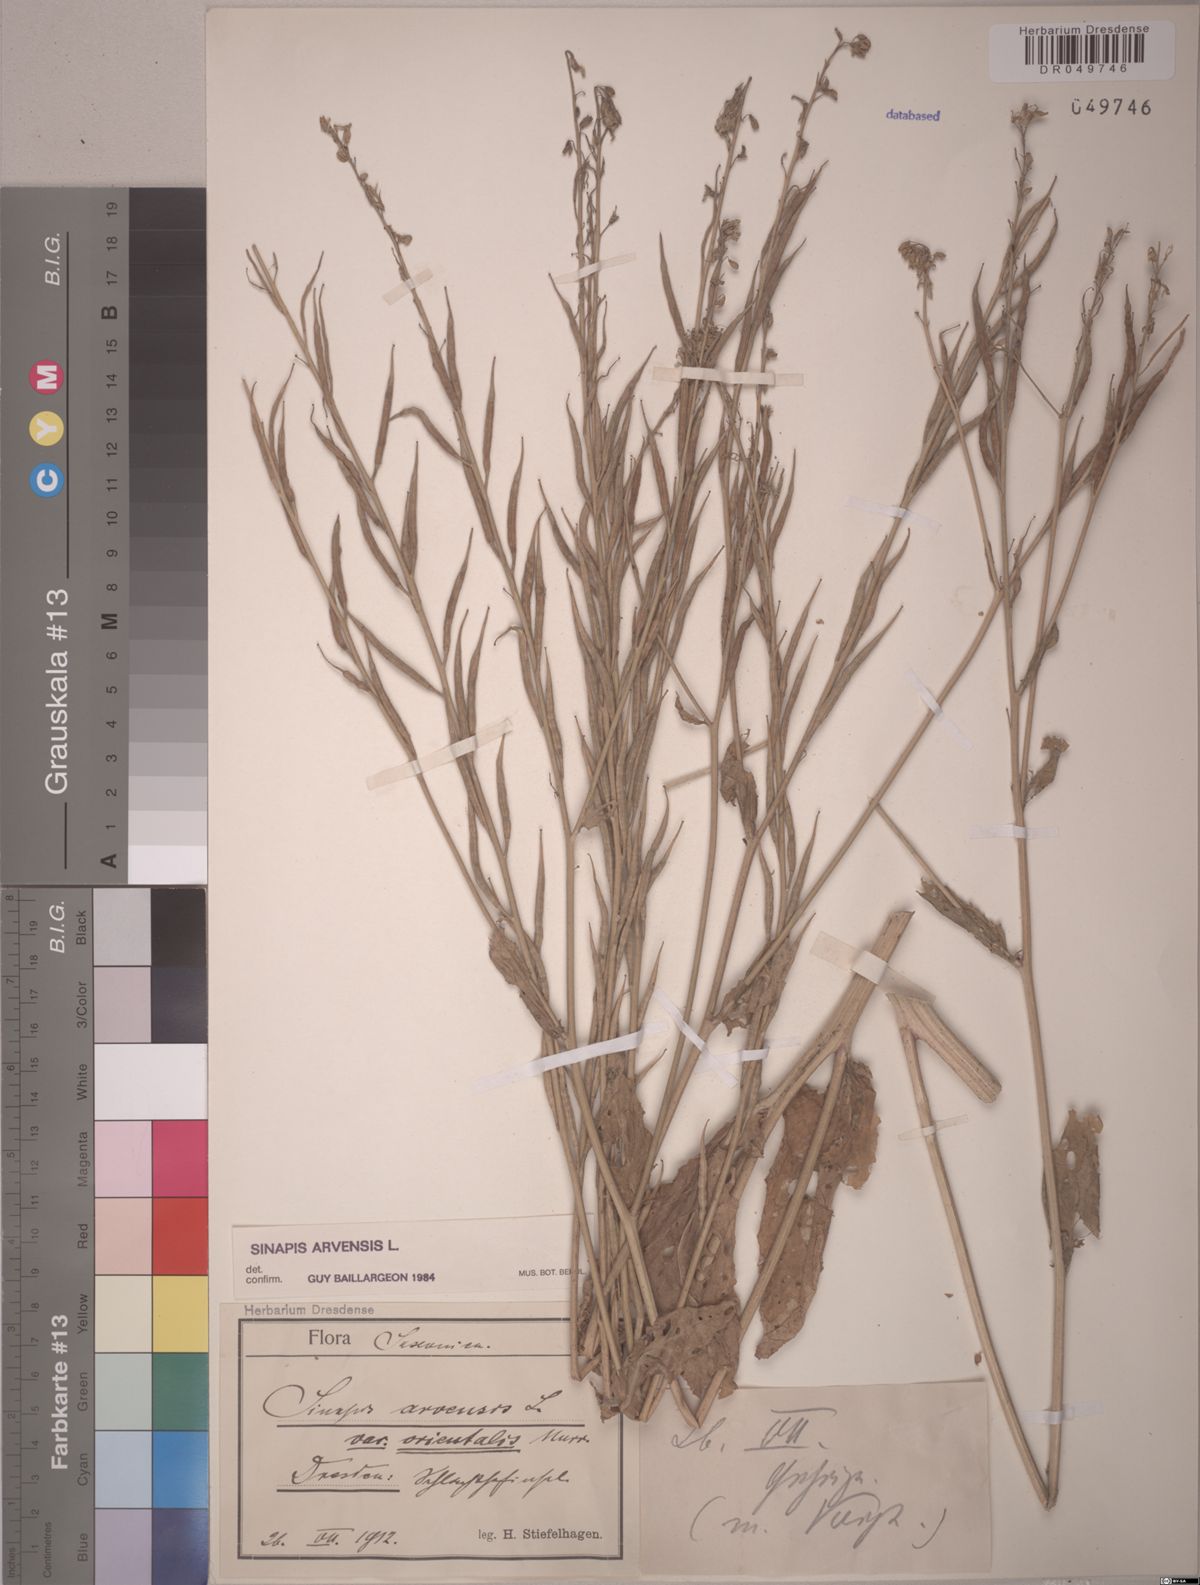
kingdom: Plantae
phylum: Tracheophyta
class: Magnoliopsida
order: Brassicales
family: Brassicaceae
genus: Sinapis
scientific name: Sinapis arvensis
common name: Charlock
